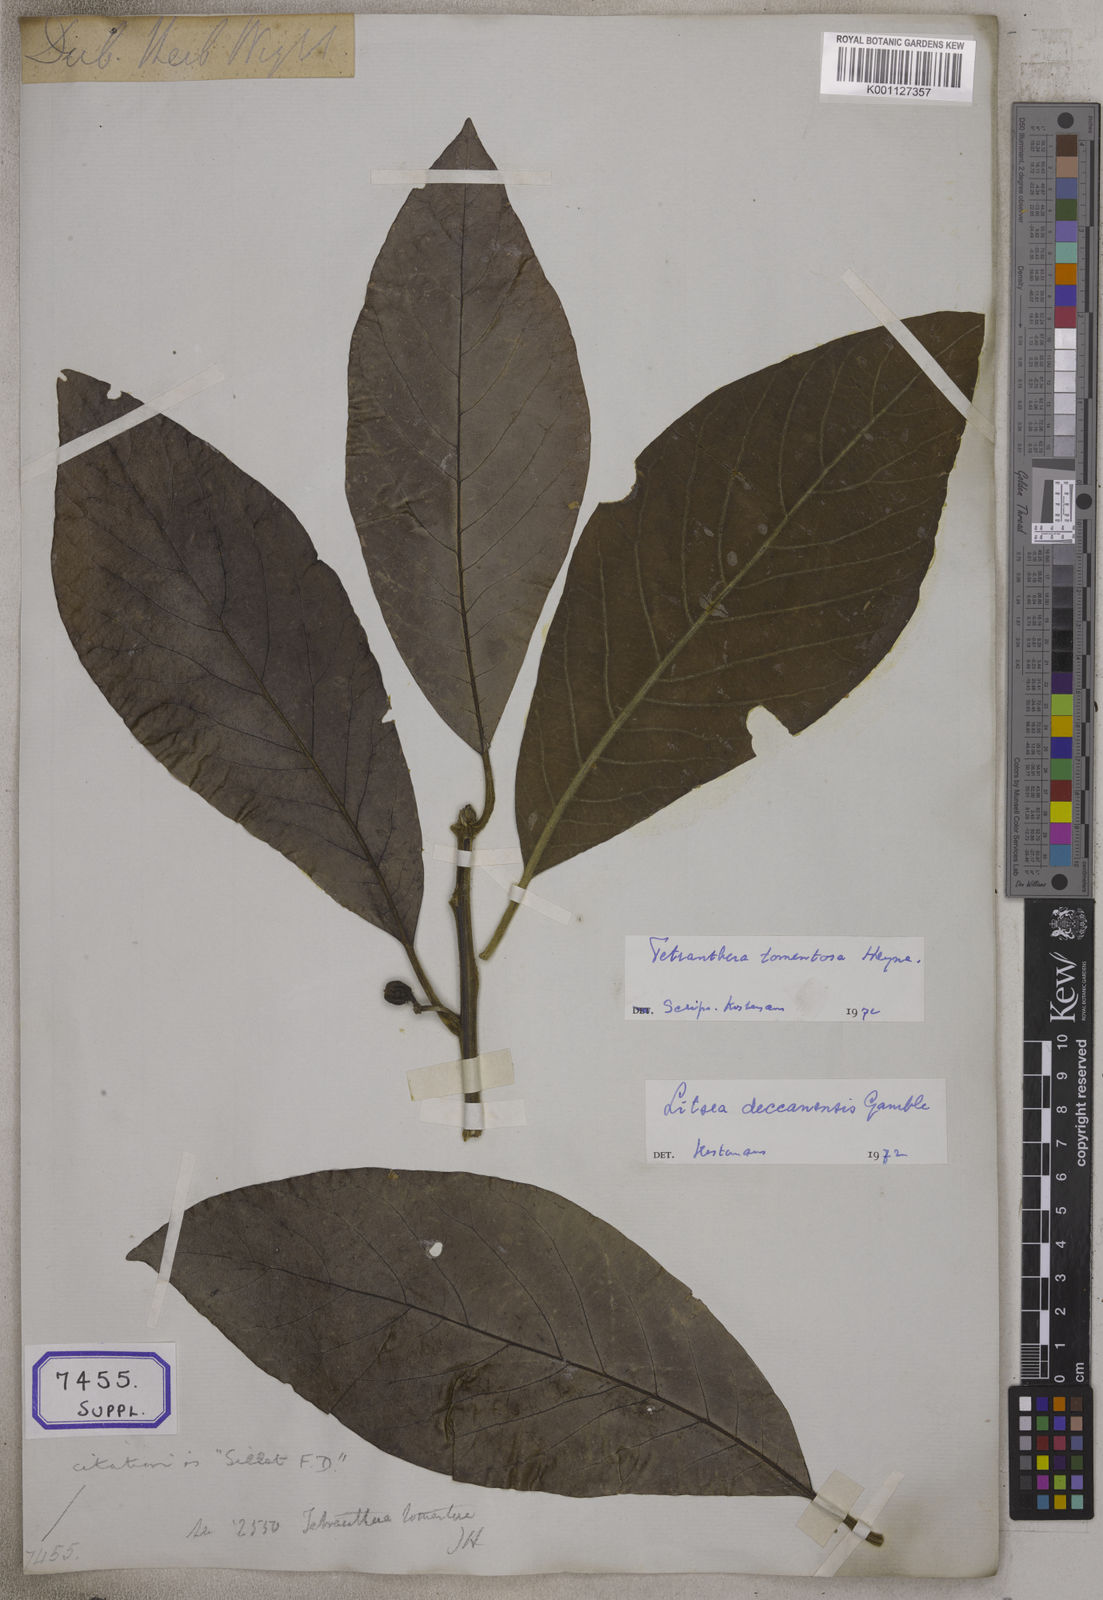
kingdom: Plantae
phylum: Tracheophyta
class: Magnoliopsida
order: Laurales
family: Lauraceae
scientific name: Lauraceae
